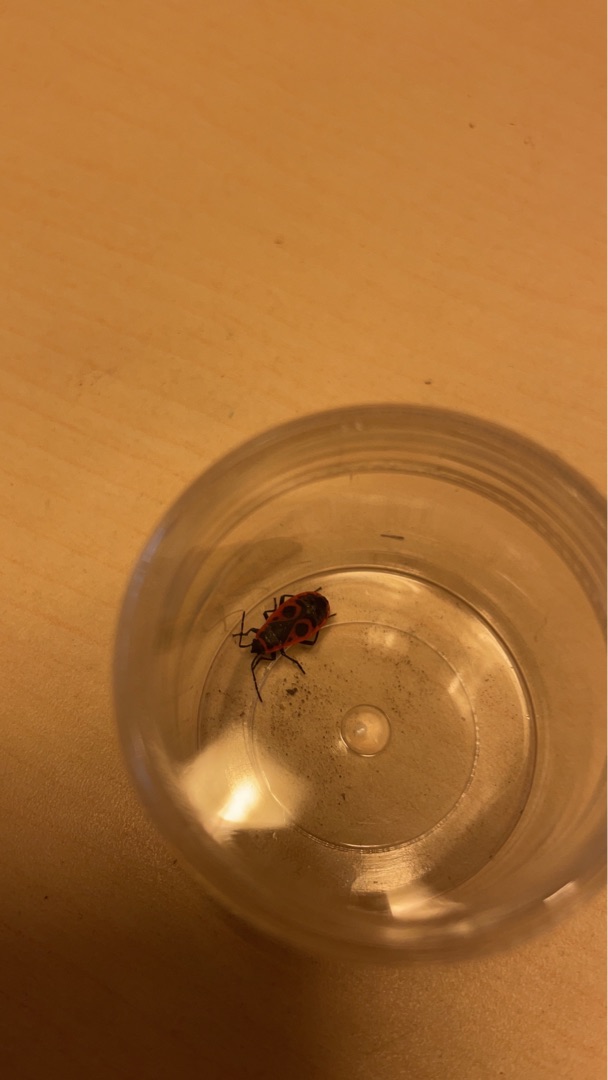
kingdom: Animalia
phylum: Arthropoda
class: Insecta
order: Hemiptera
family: Pyrrhocoridae
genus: Pyrrhocoris
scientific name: Pyrrhocoris apterus
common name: Ildtæge
